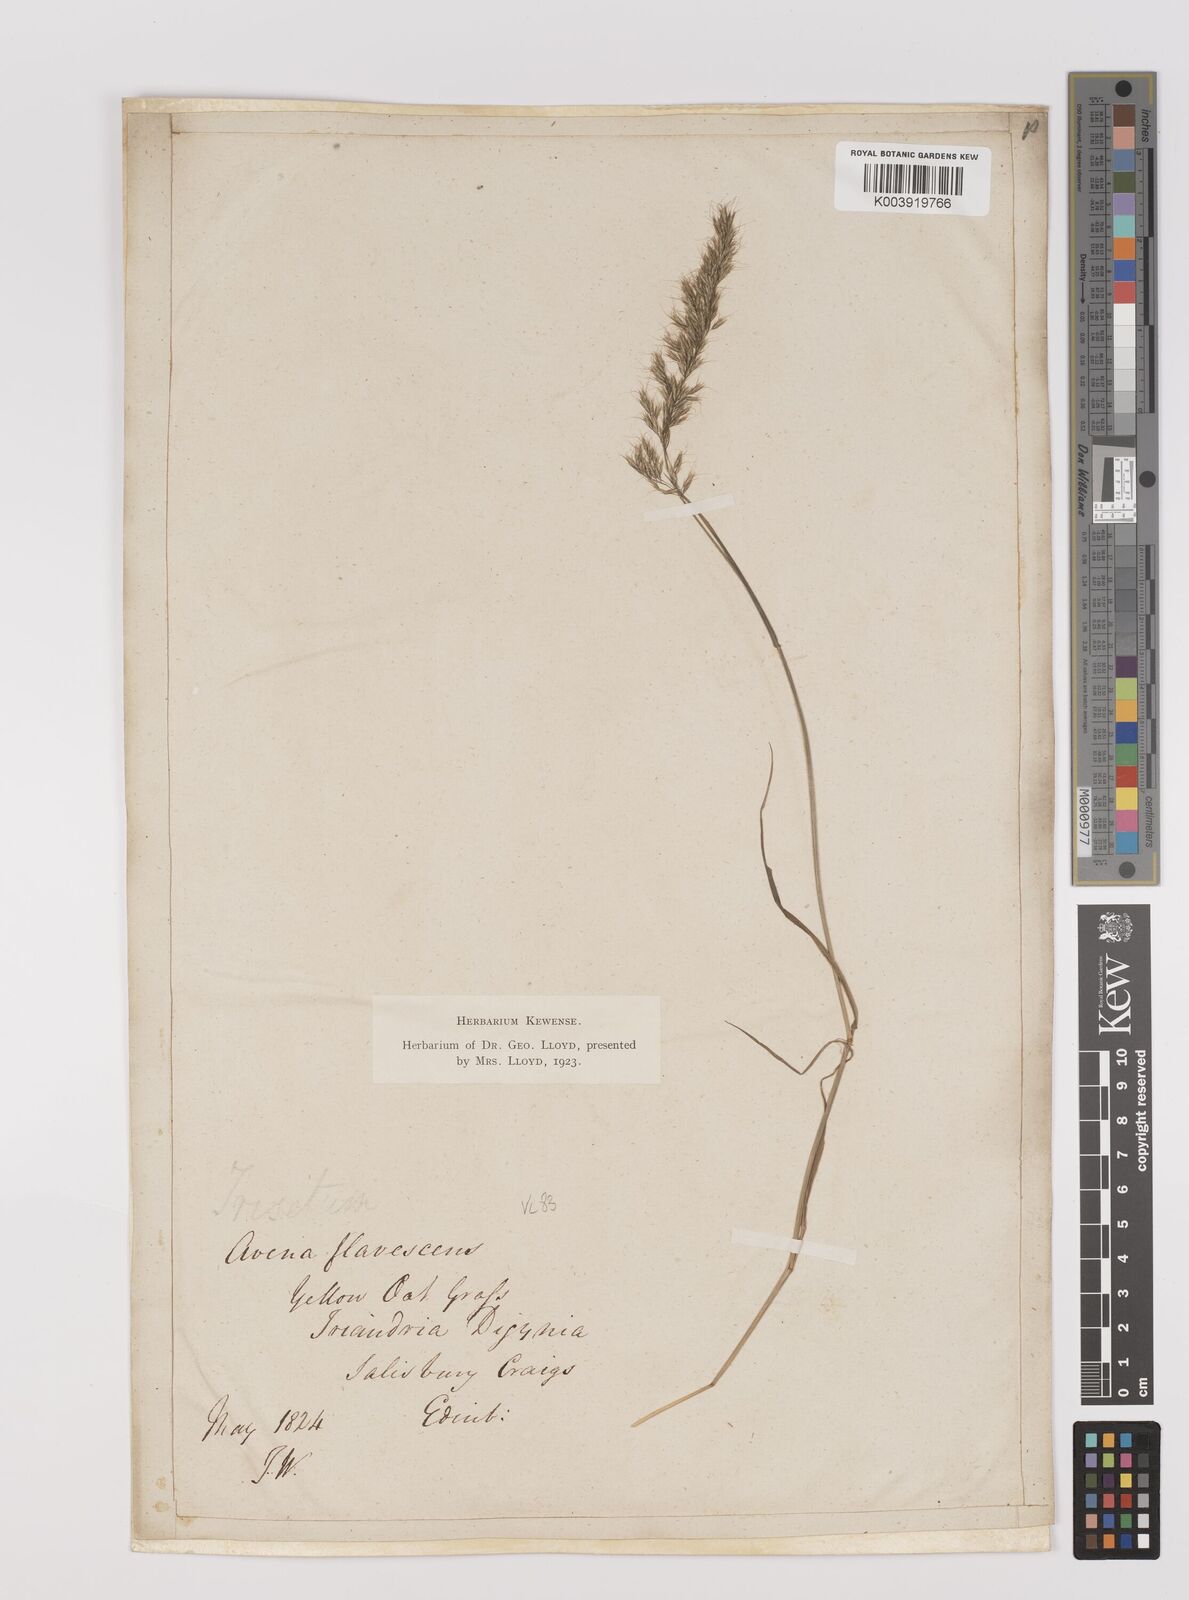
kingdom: Plantae
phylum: Tracheophyta
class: Liliopsida
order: Poales
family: Poaceae
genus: Trisetum
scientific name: Trisetum flavescens
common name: Yellow oat-grass
